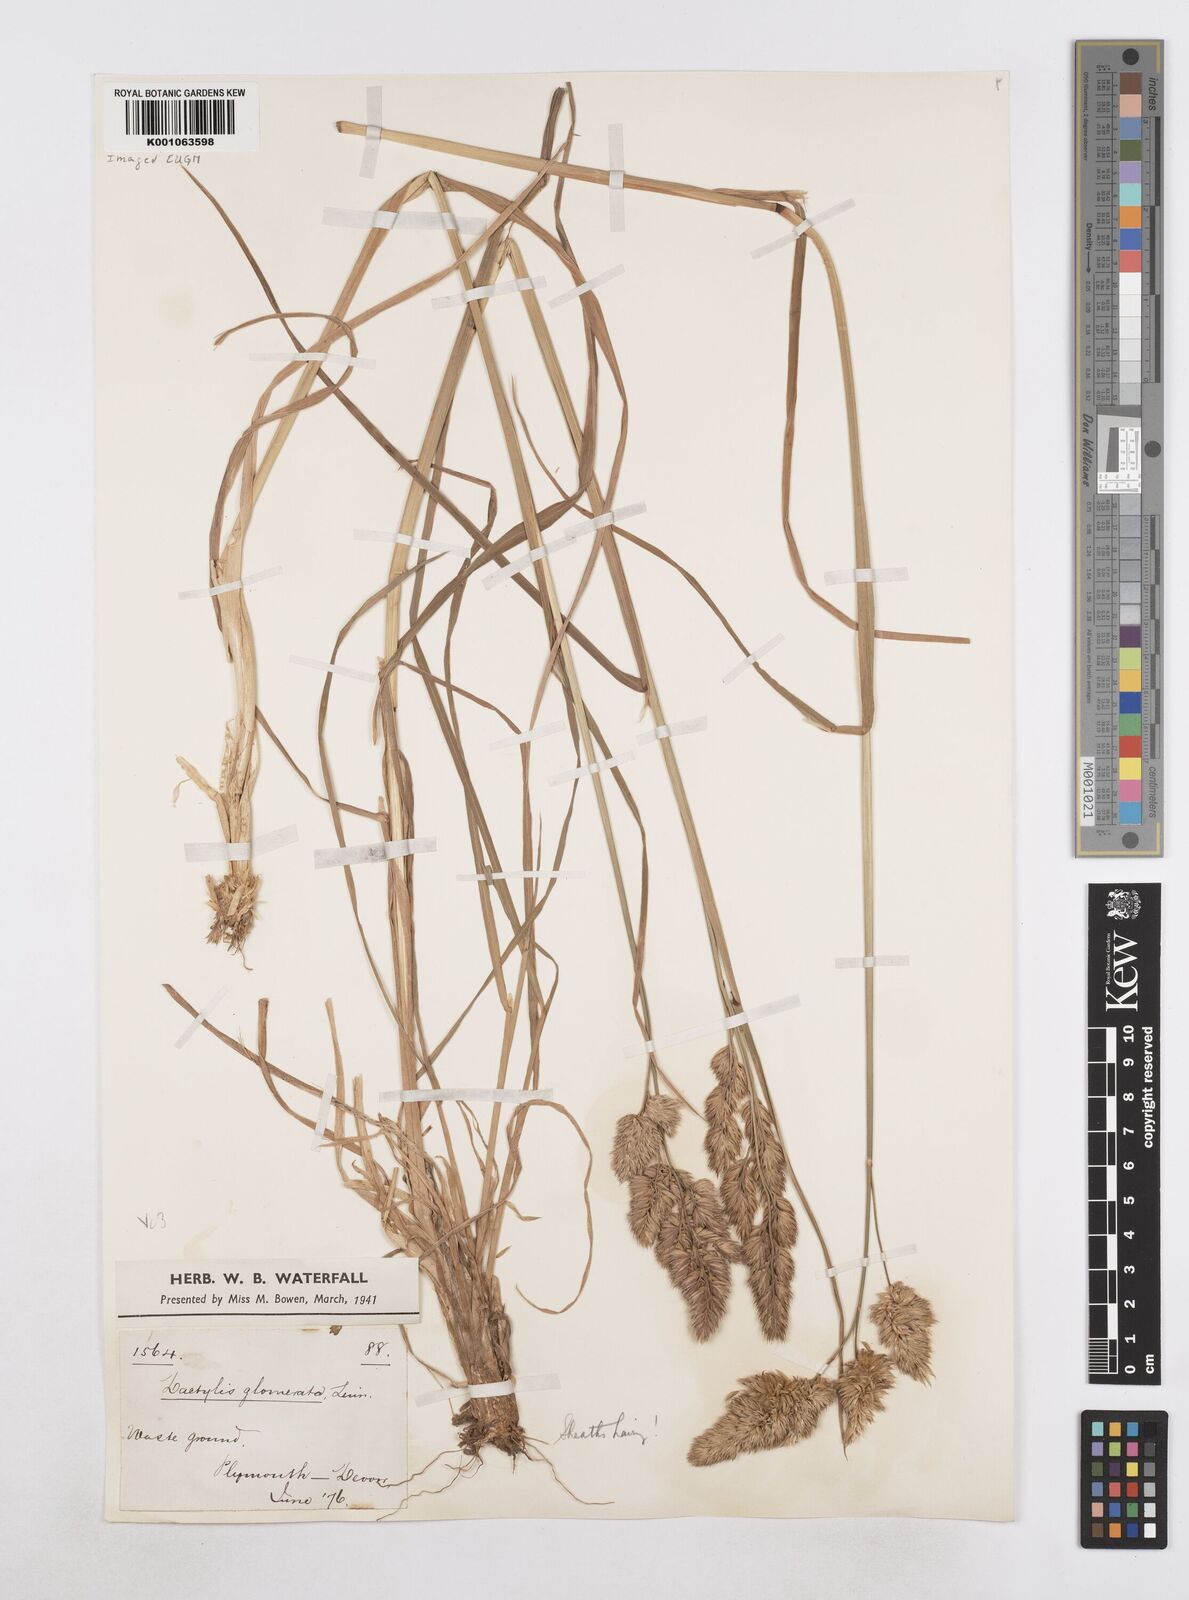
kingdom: Plantae
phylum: Tracheophyta
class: Liliopsida
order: Poales
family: Poaceae
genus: Dactylis
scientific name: Dactylis glomerata
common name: Orchardgrass
